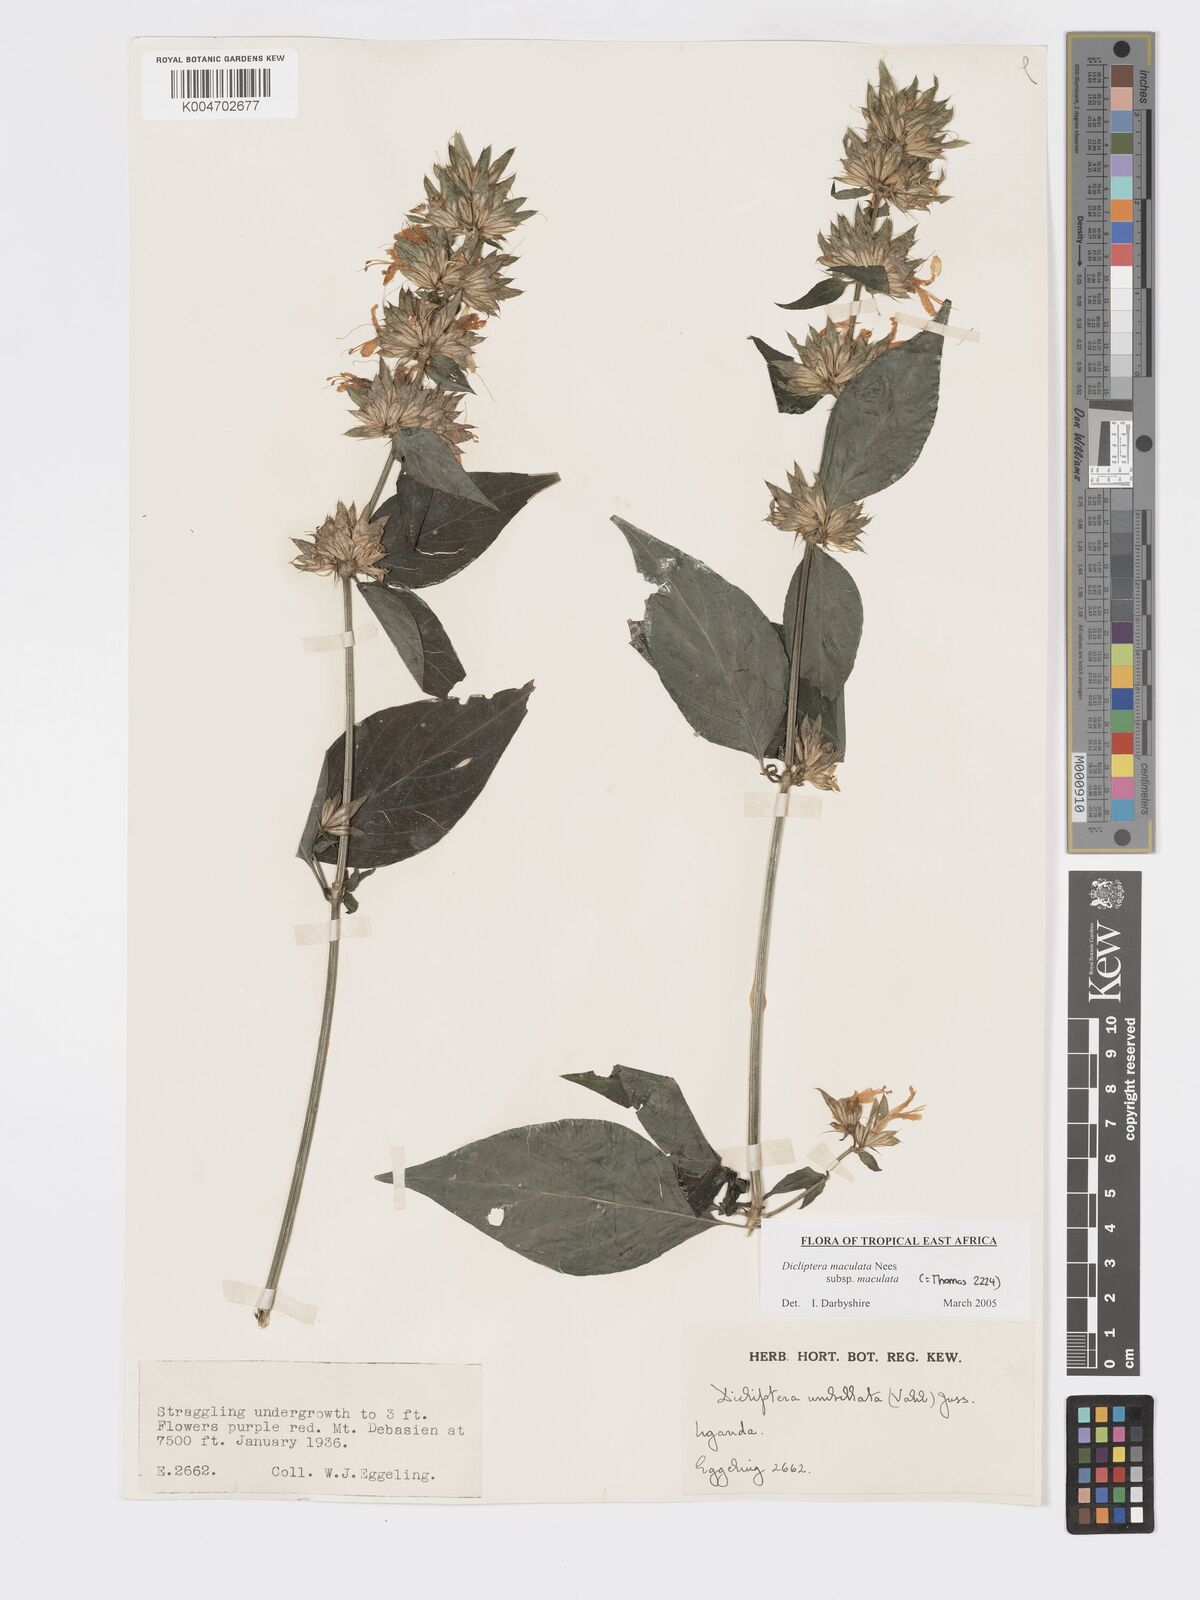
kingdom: Plantae
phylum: Tracheophyta
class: Magnoliopsida
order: Lamiales
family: Acanthaceae
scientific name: Acanthaceae
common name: Acanthaceae
